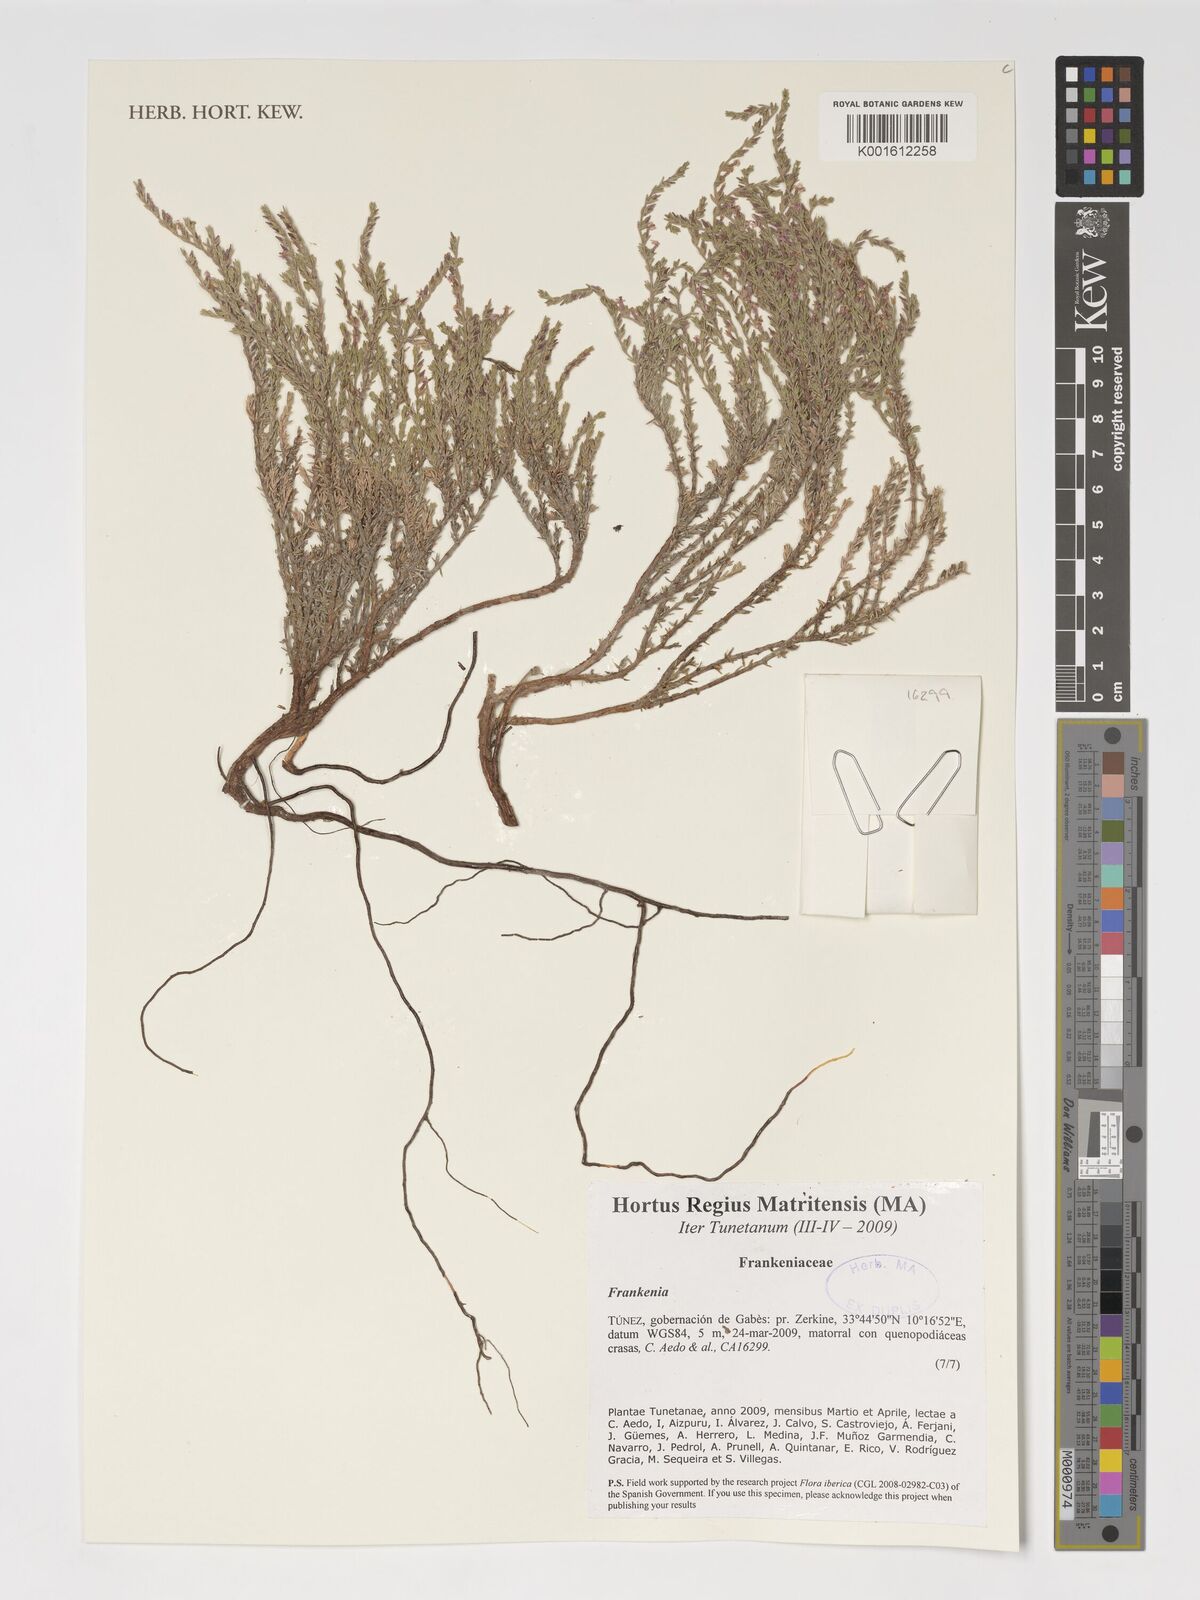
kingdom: Plantae
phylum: Tracheophyta
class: Magnoliopsida
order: Caryophyllales
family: Frankeniaceae
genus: Frankenia
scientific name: Frankenia
